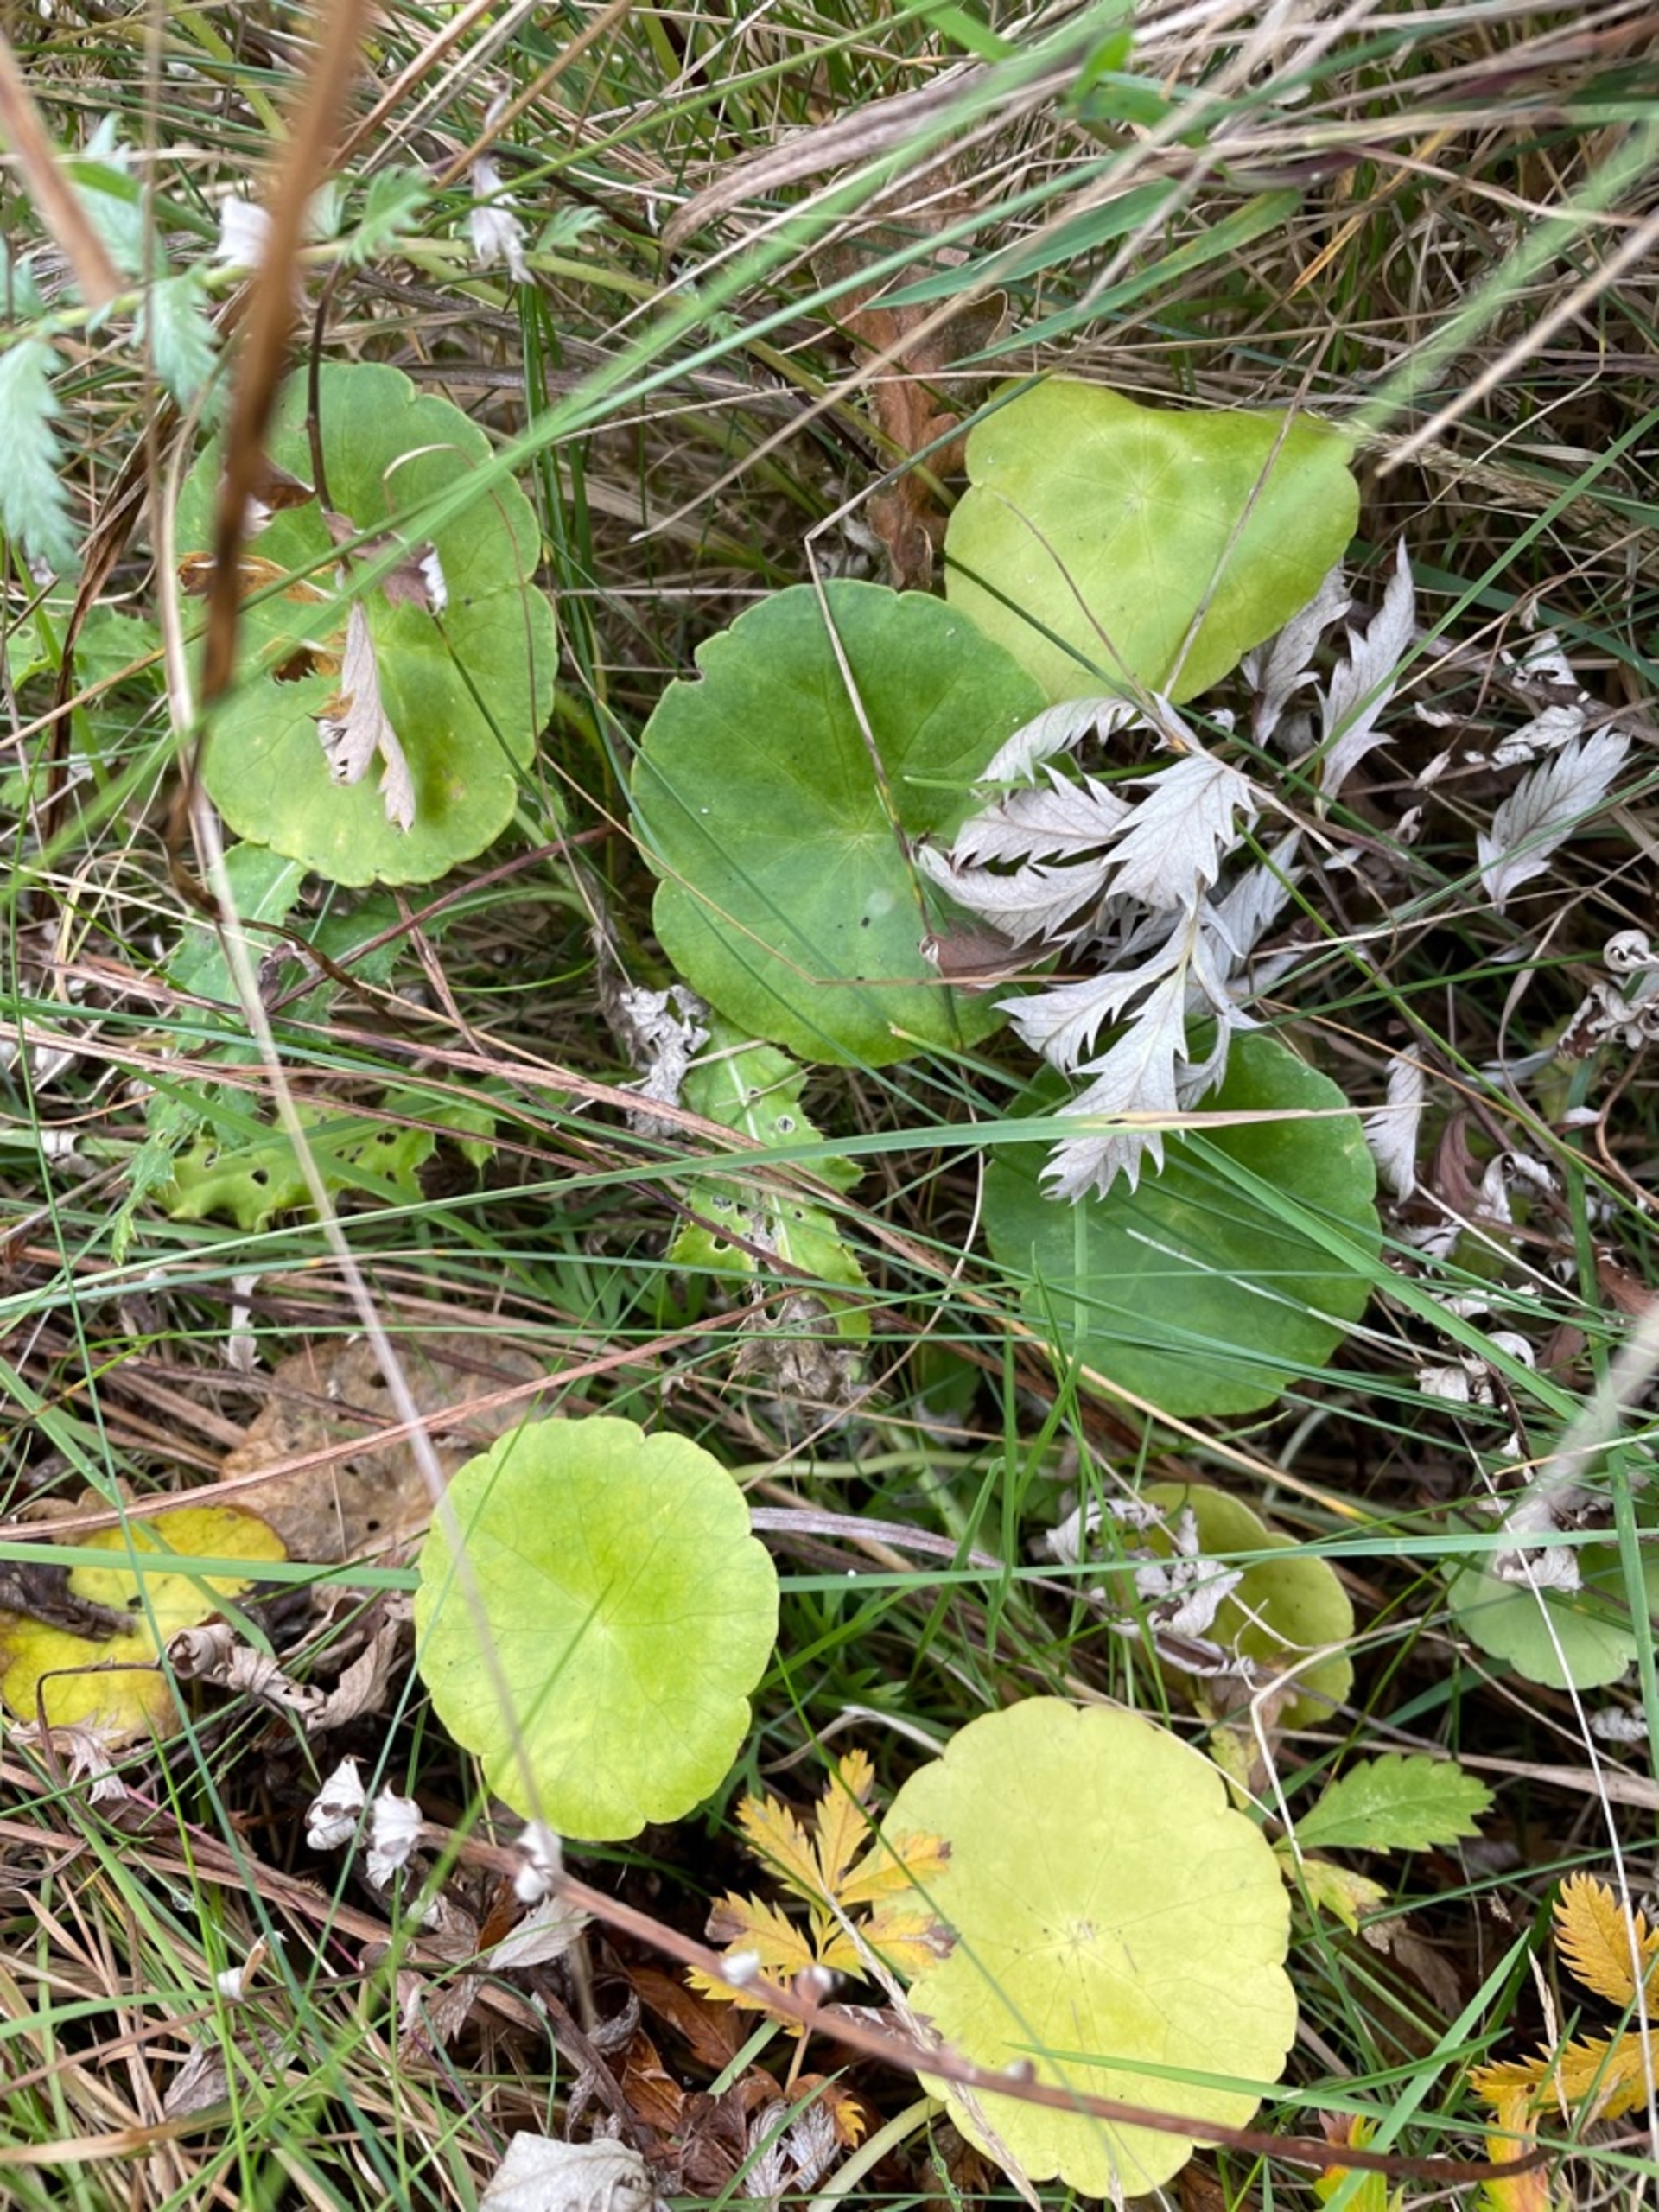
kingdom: Plantae
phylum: Tracheophyta
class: Magnoliopsida
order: Apiales
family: Araliaceae
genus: Hydrocotyle
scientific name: Hydrocotyle vulgaris
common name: Vandnavle
